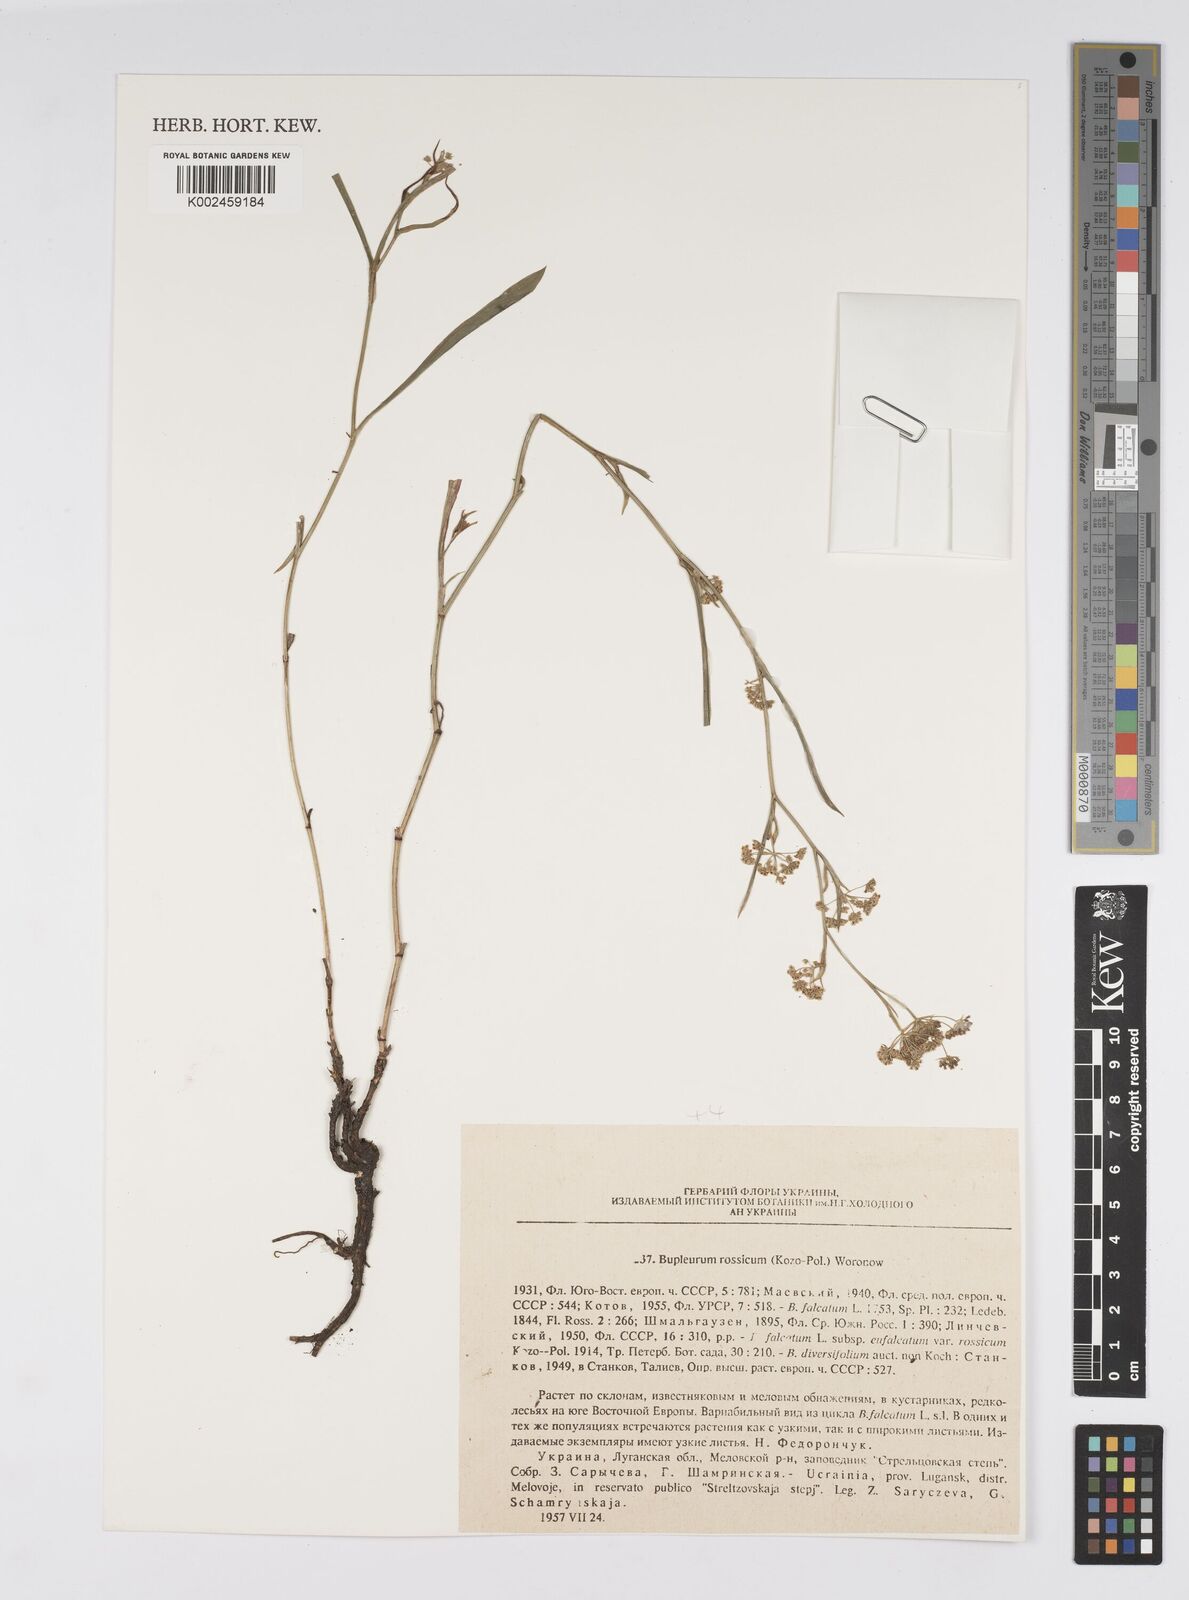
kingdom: Plantae
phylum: Tracheophyta
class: Magnoliopsida
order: Apiales
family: Apiaceae
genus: Bupleurum
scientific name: Bupleurum falcatum
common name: Sickle-leaved hare's-ear
